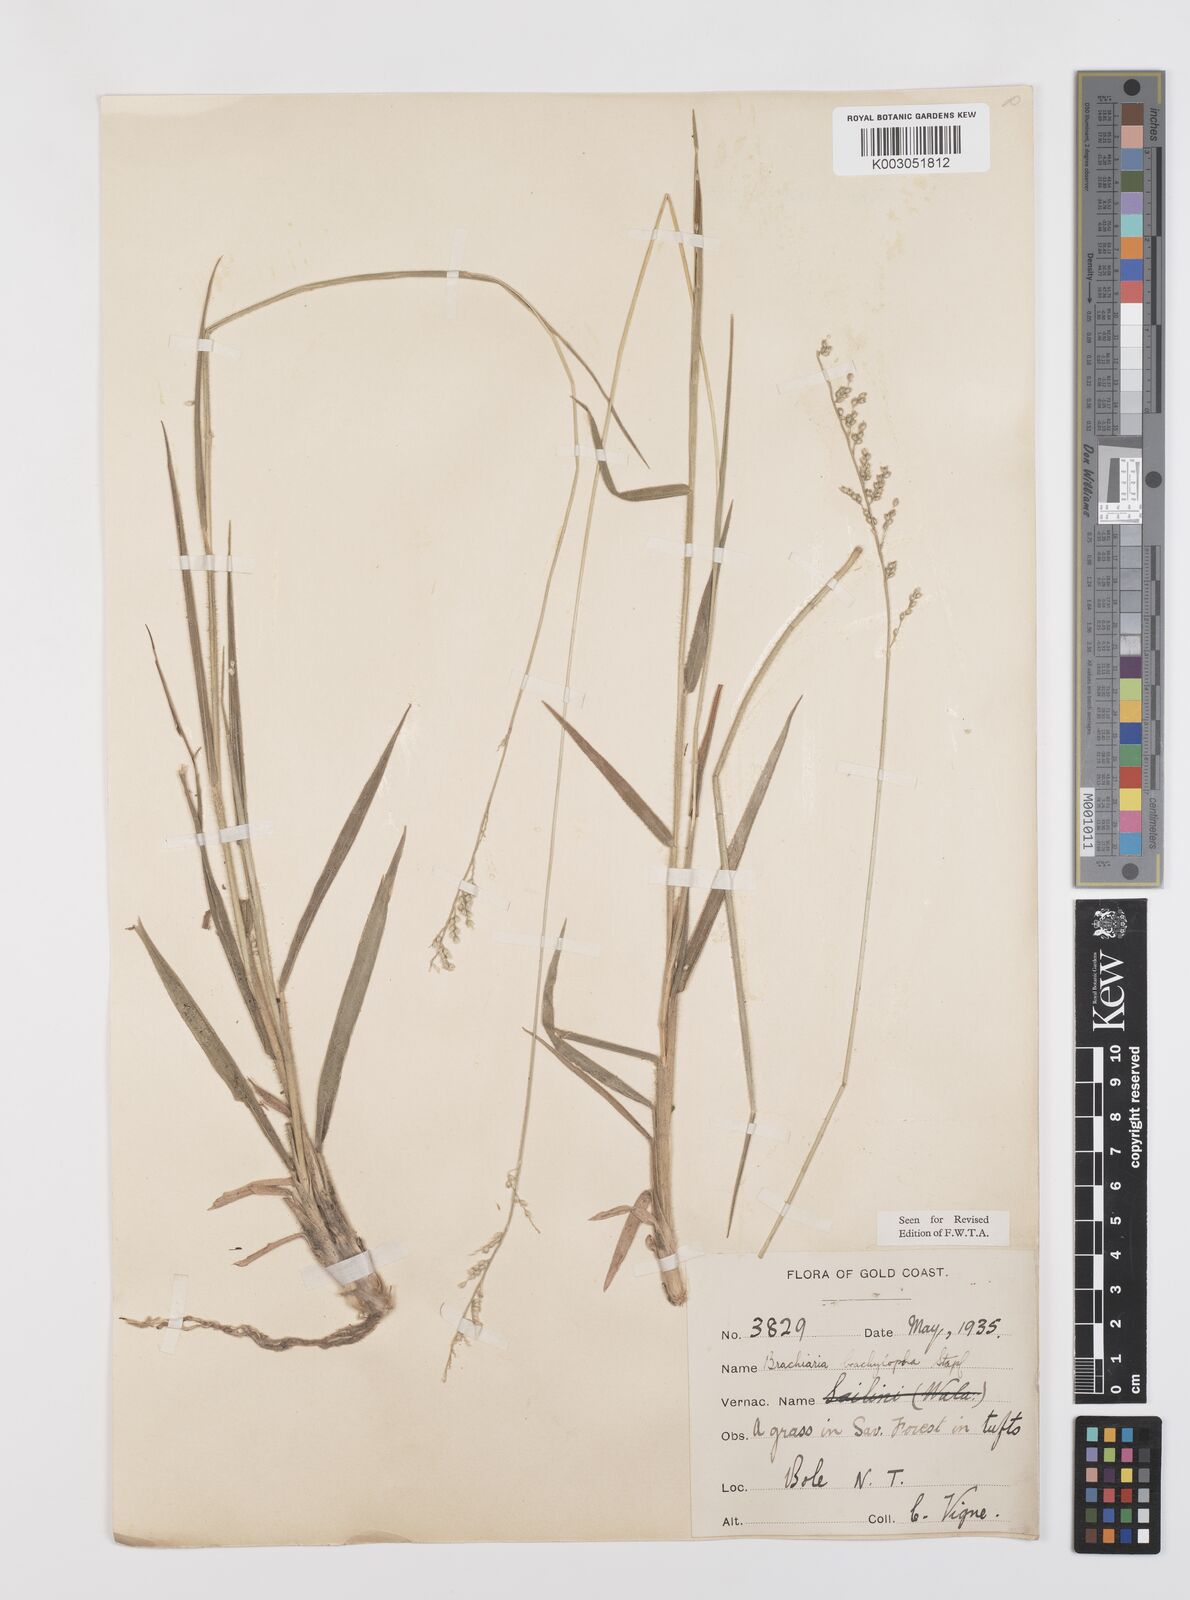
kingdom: Plantae
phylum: Tracheophyta
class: Liliopsida
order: Poales
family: Poaceae
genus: Urochloa
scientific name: Urochloa serrata
